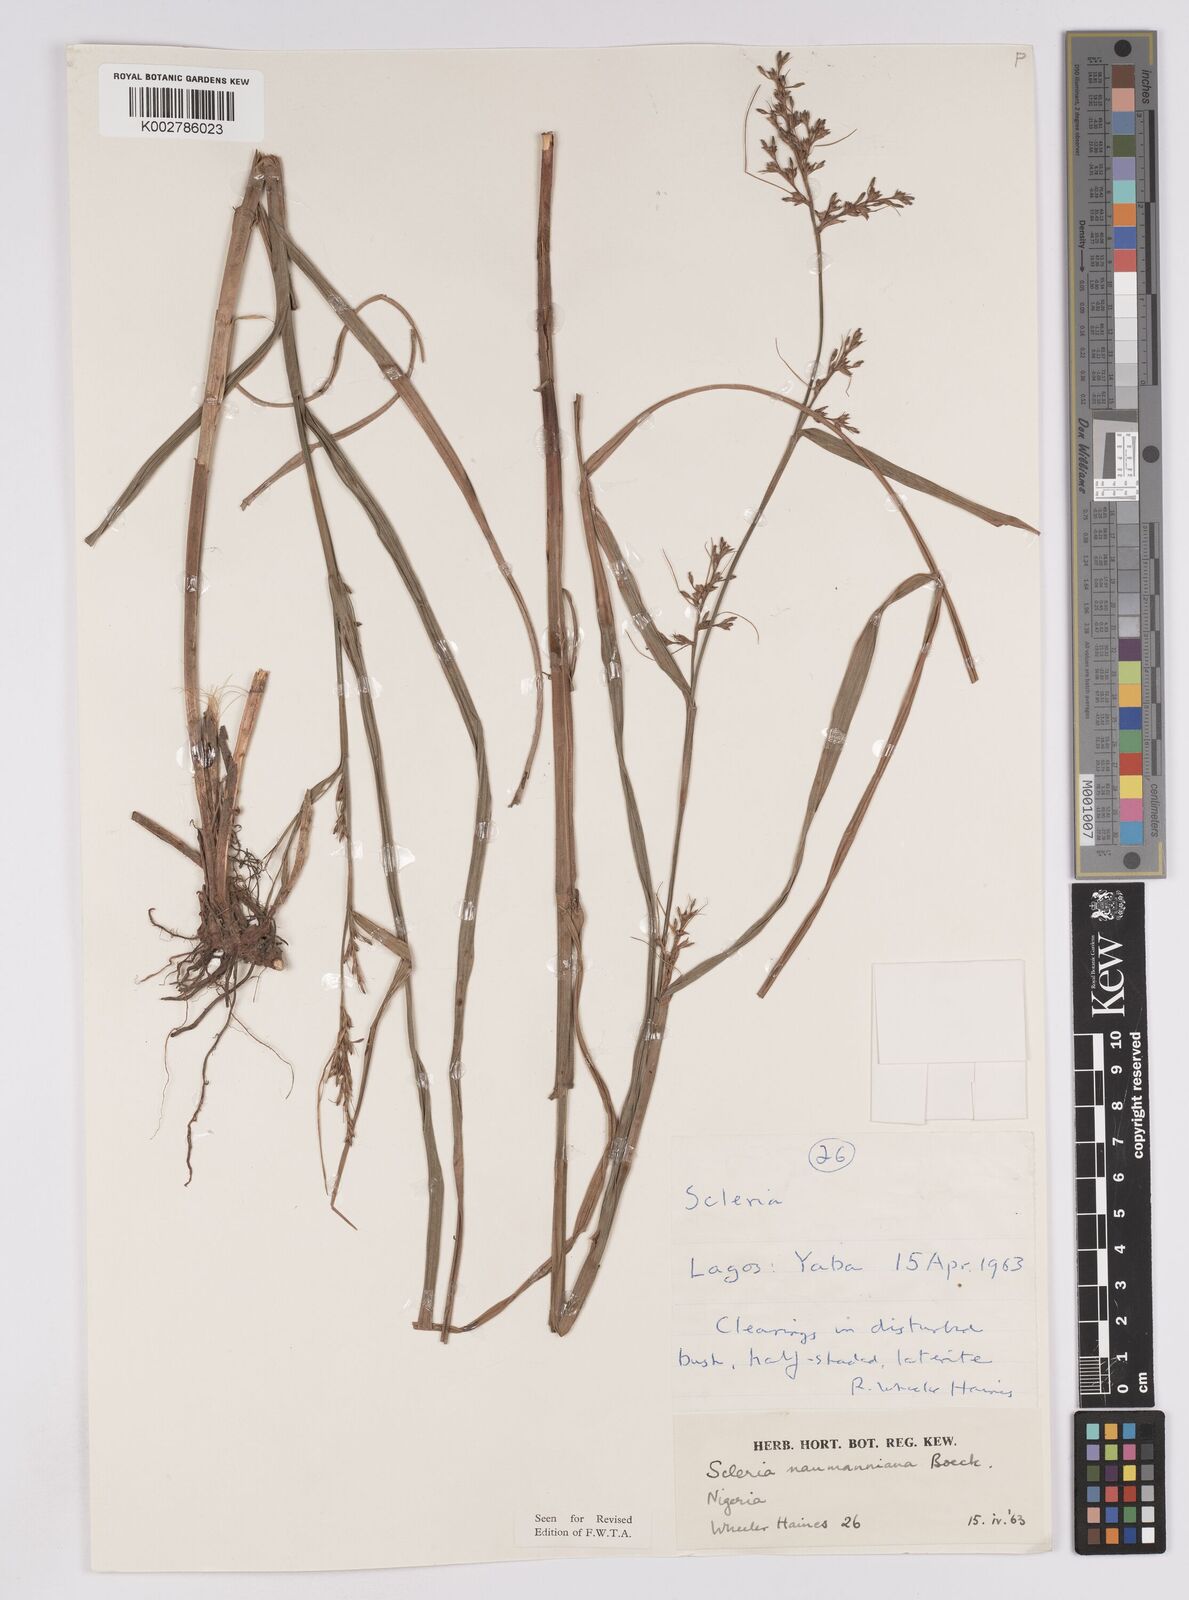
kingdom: Plantae
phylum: Tracheophyta
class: Liliopsida
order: Poales
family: Cyperaceae
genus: Scleria
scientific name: Scleria naumanniana
